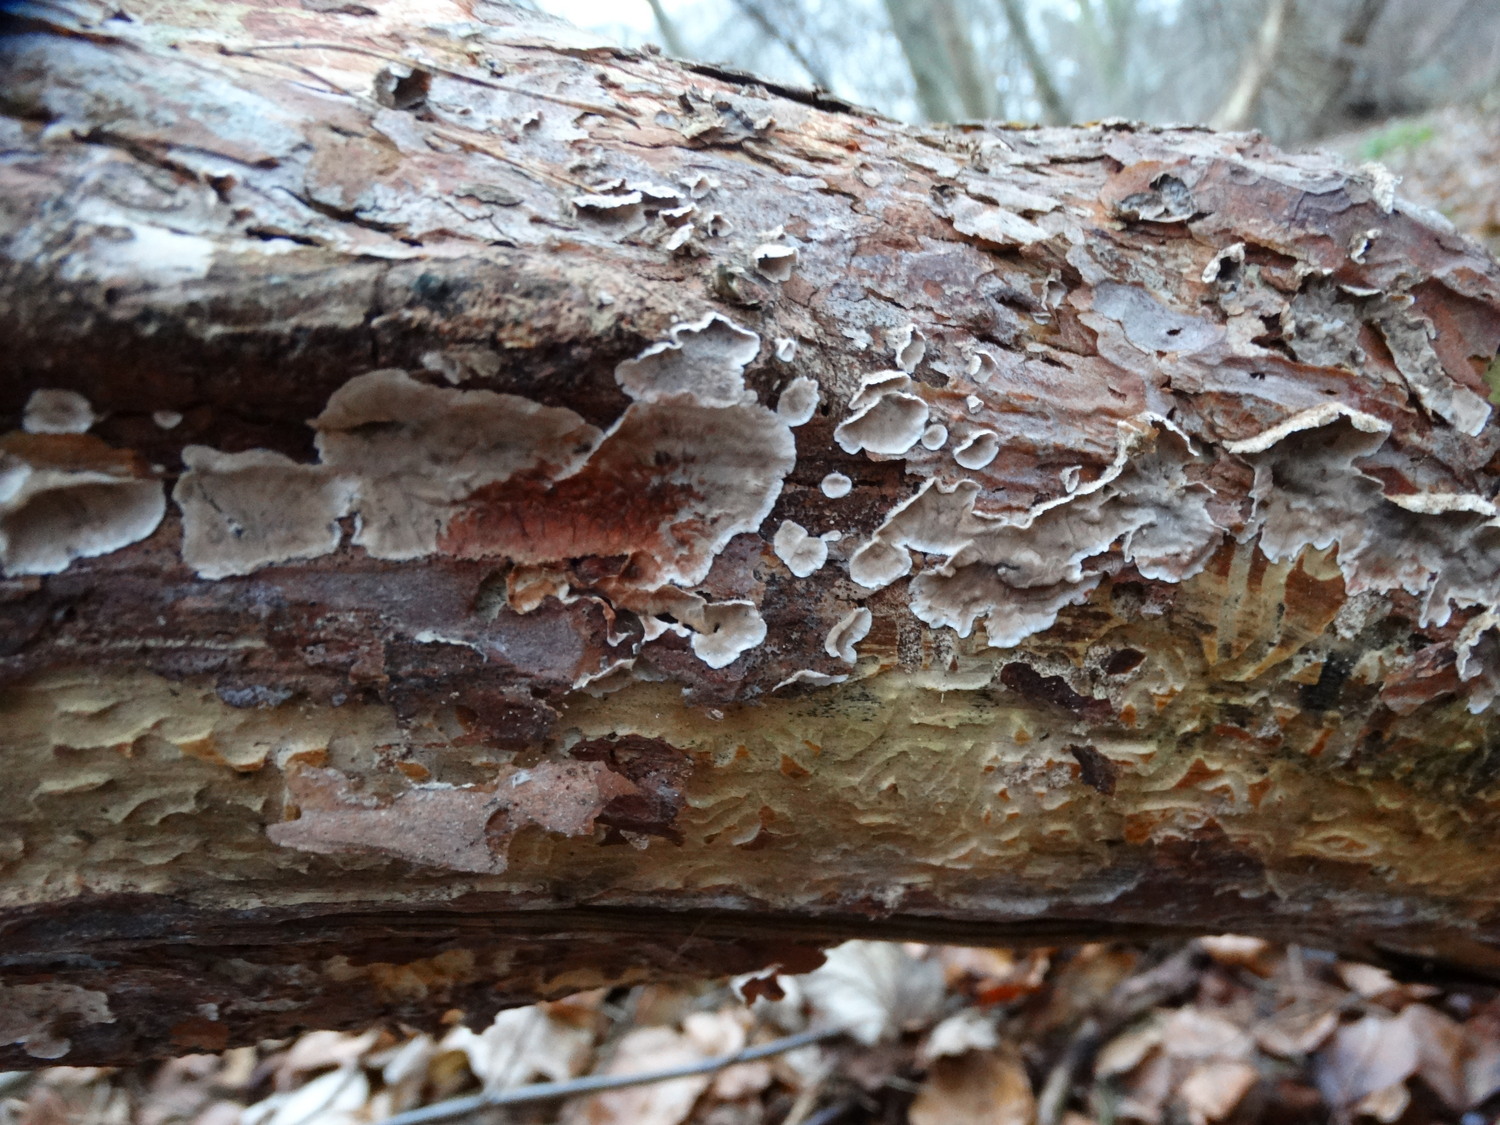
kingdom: Fungi
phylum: Basidiomycota
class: Agaricomycetes
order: Russulales
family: Stereaceae
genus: Stereum
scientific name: Stereum sanguinolentum
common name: blødende lædersvamp
